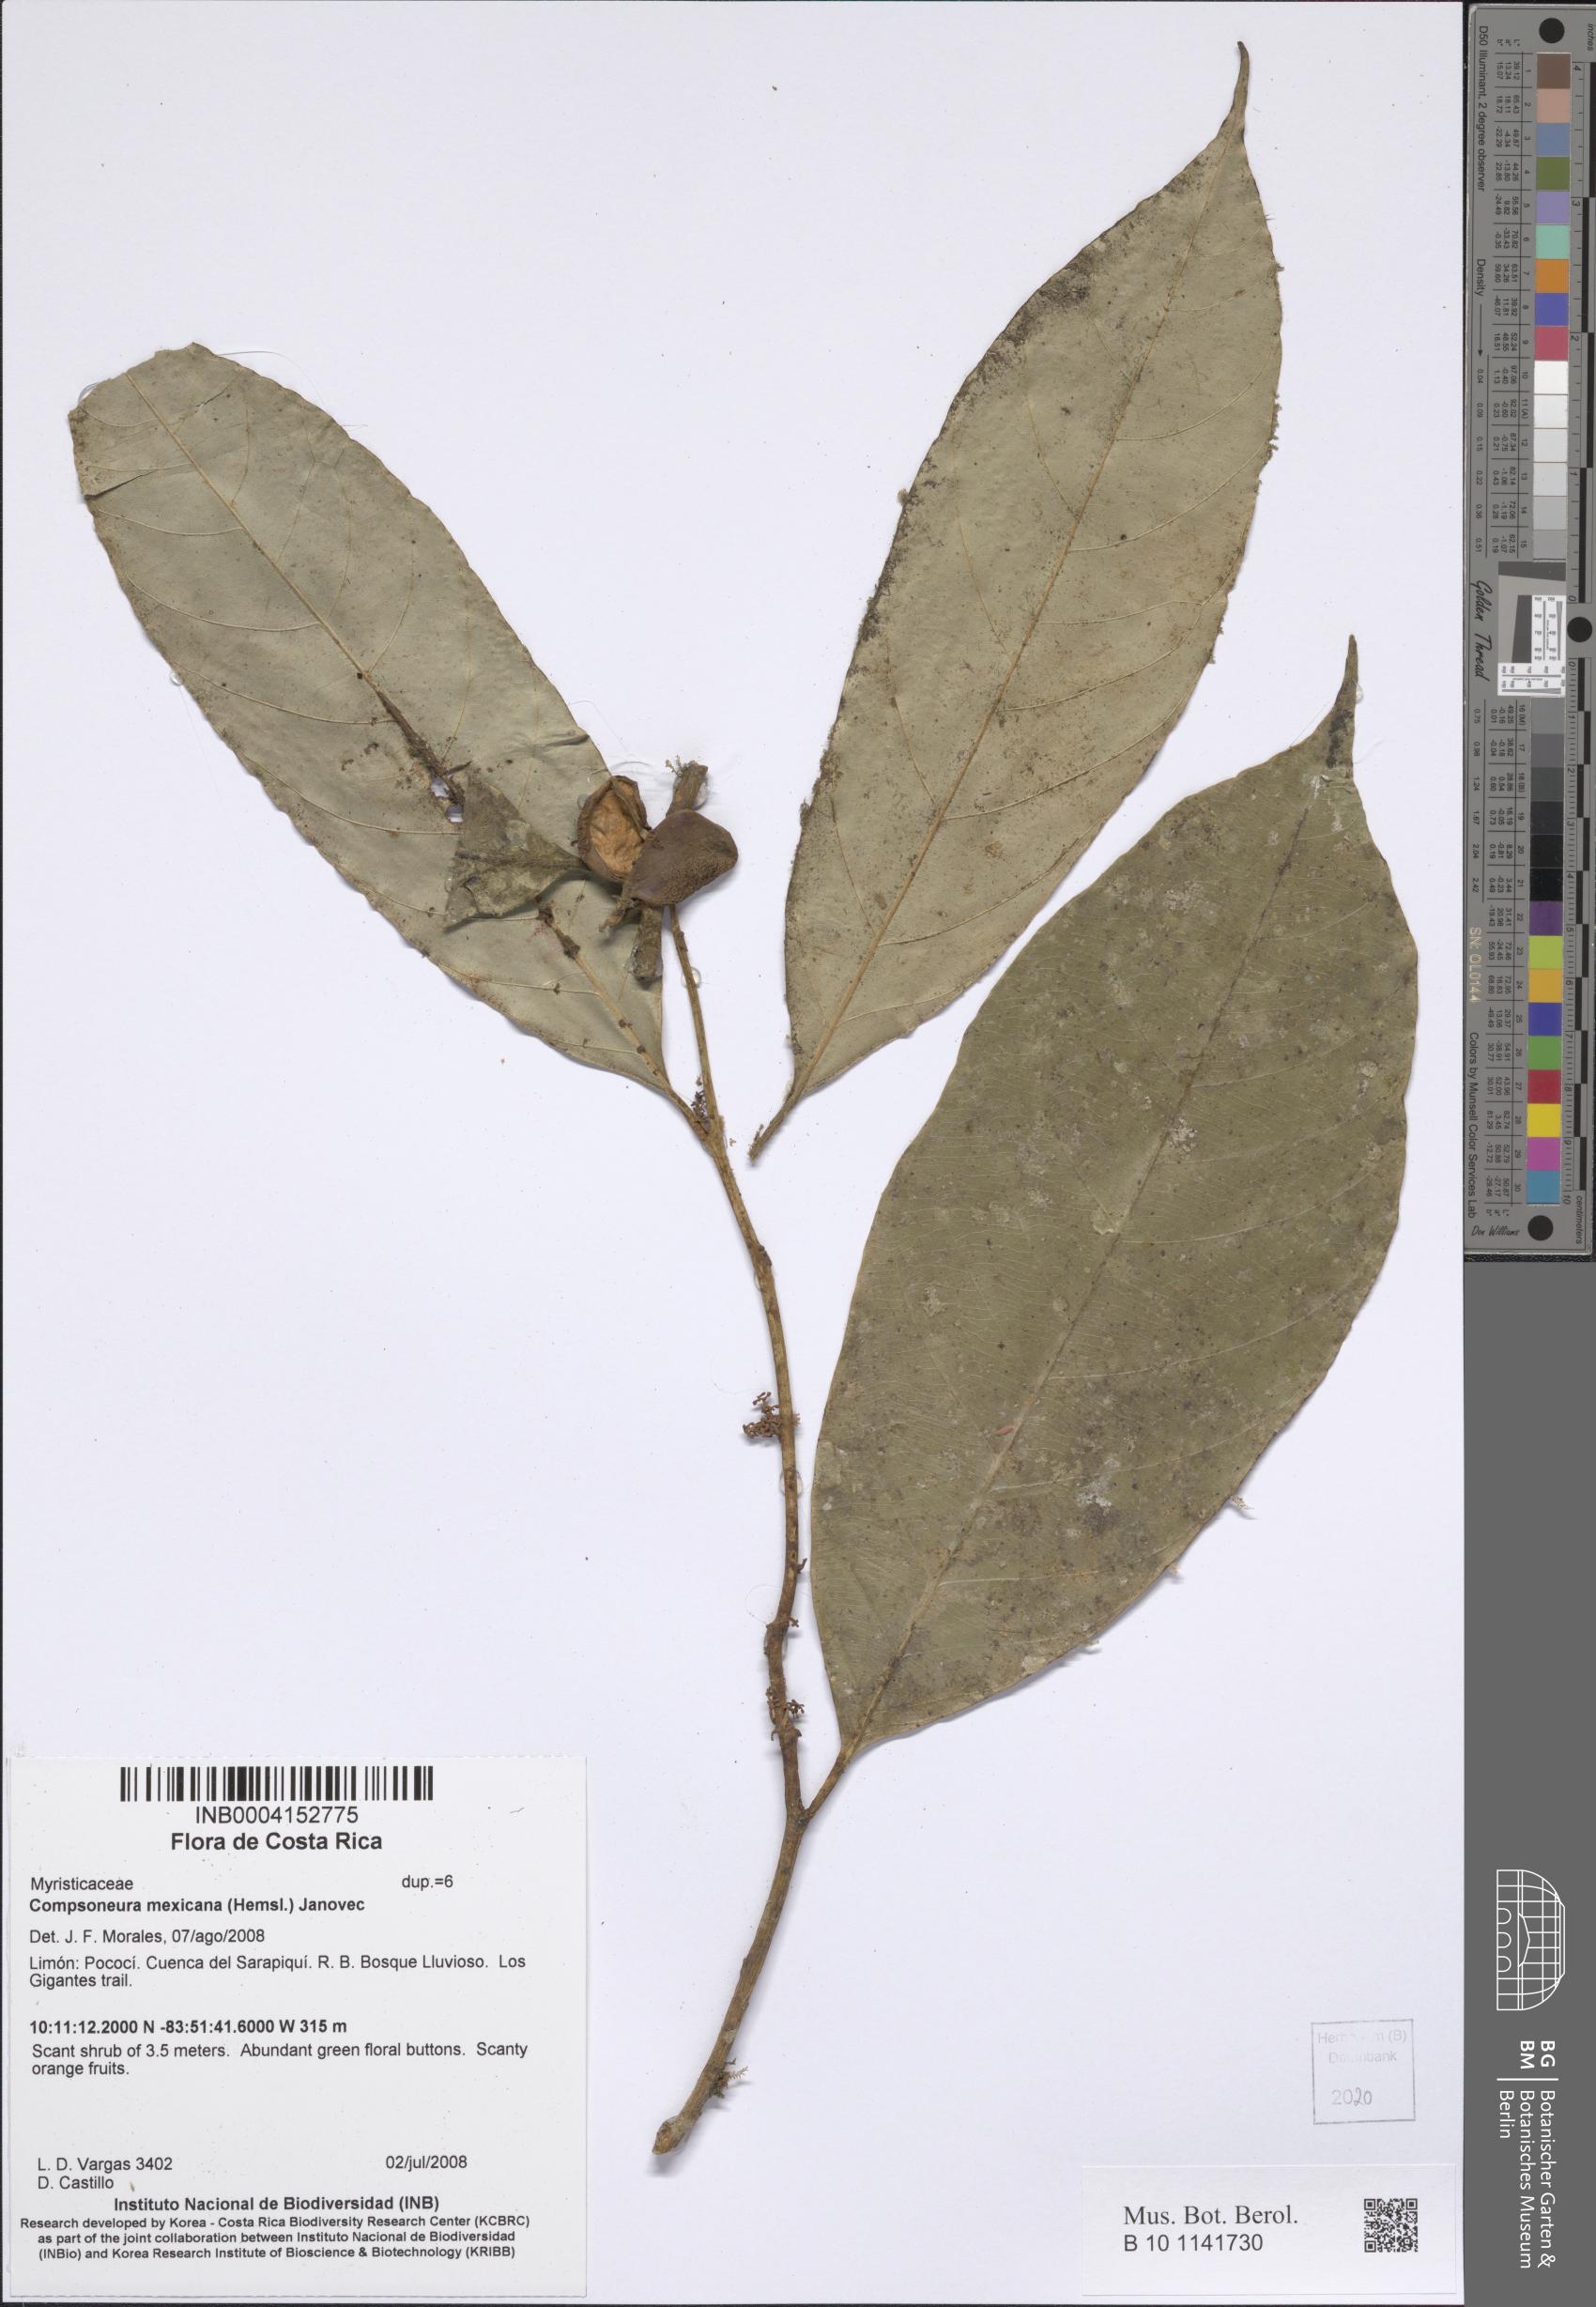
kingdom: Plantae
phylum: Tracheophyta
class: Magnoliopsida
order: Magnoliales
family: Myristicaceae
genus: Compsoneura
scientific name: Compsoneura mexicana
